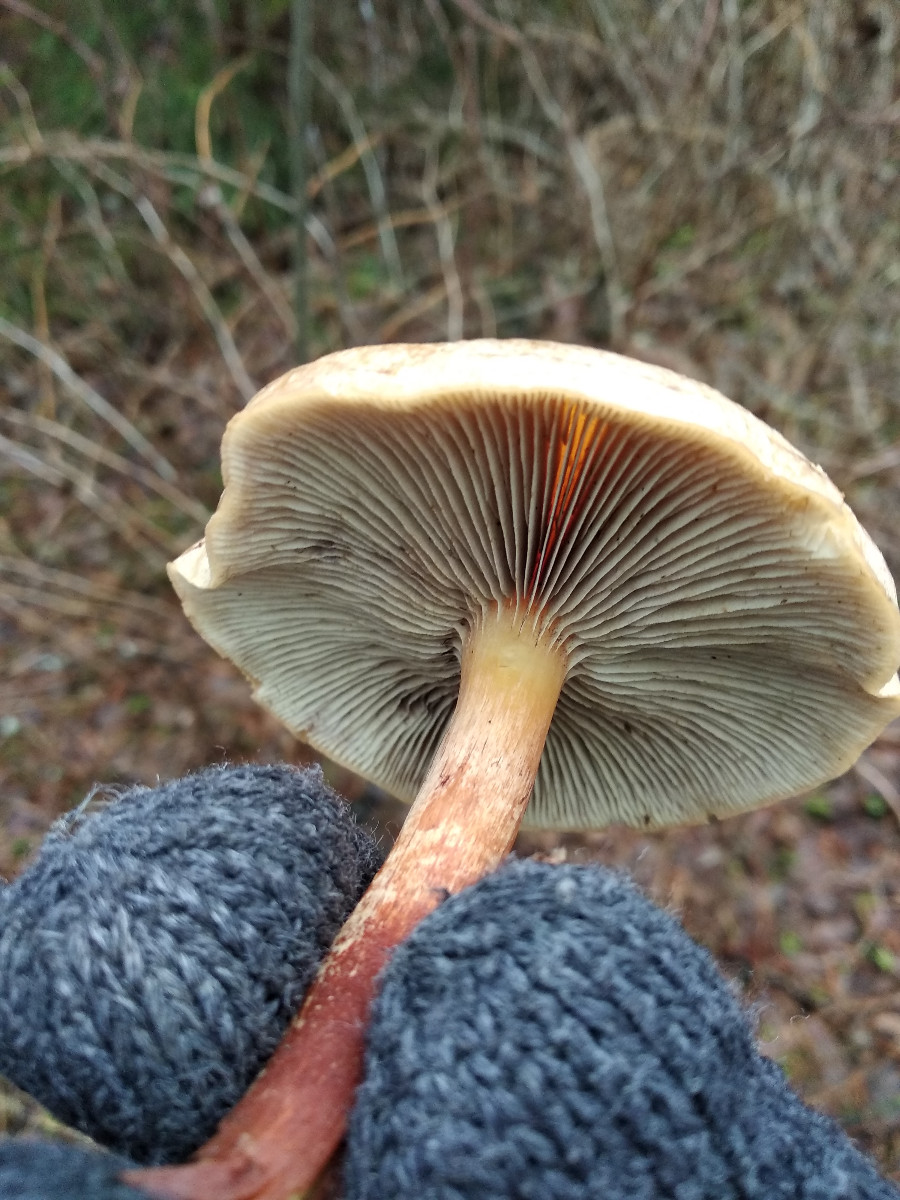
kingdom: Fungi
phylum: Basidiomycota
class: Agaricomycetes
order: Agaricales
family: Strophariaceae
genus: Hypholoma
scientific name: Hypholoma
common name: svovlhat
